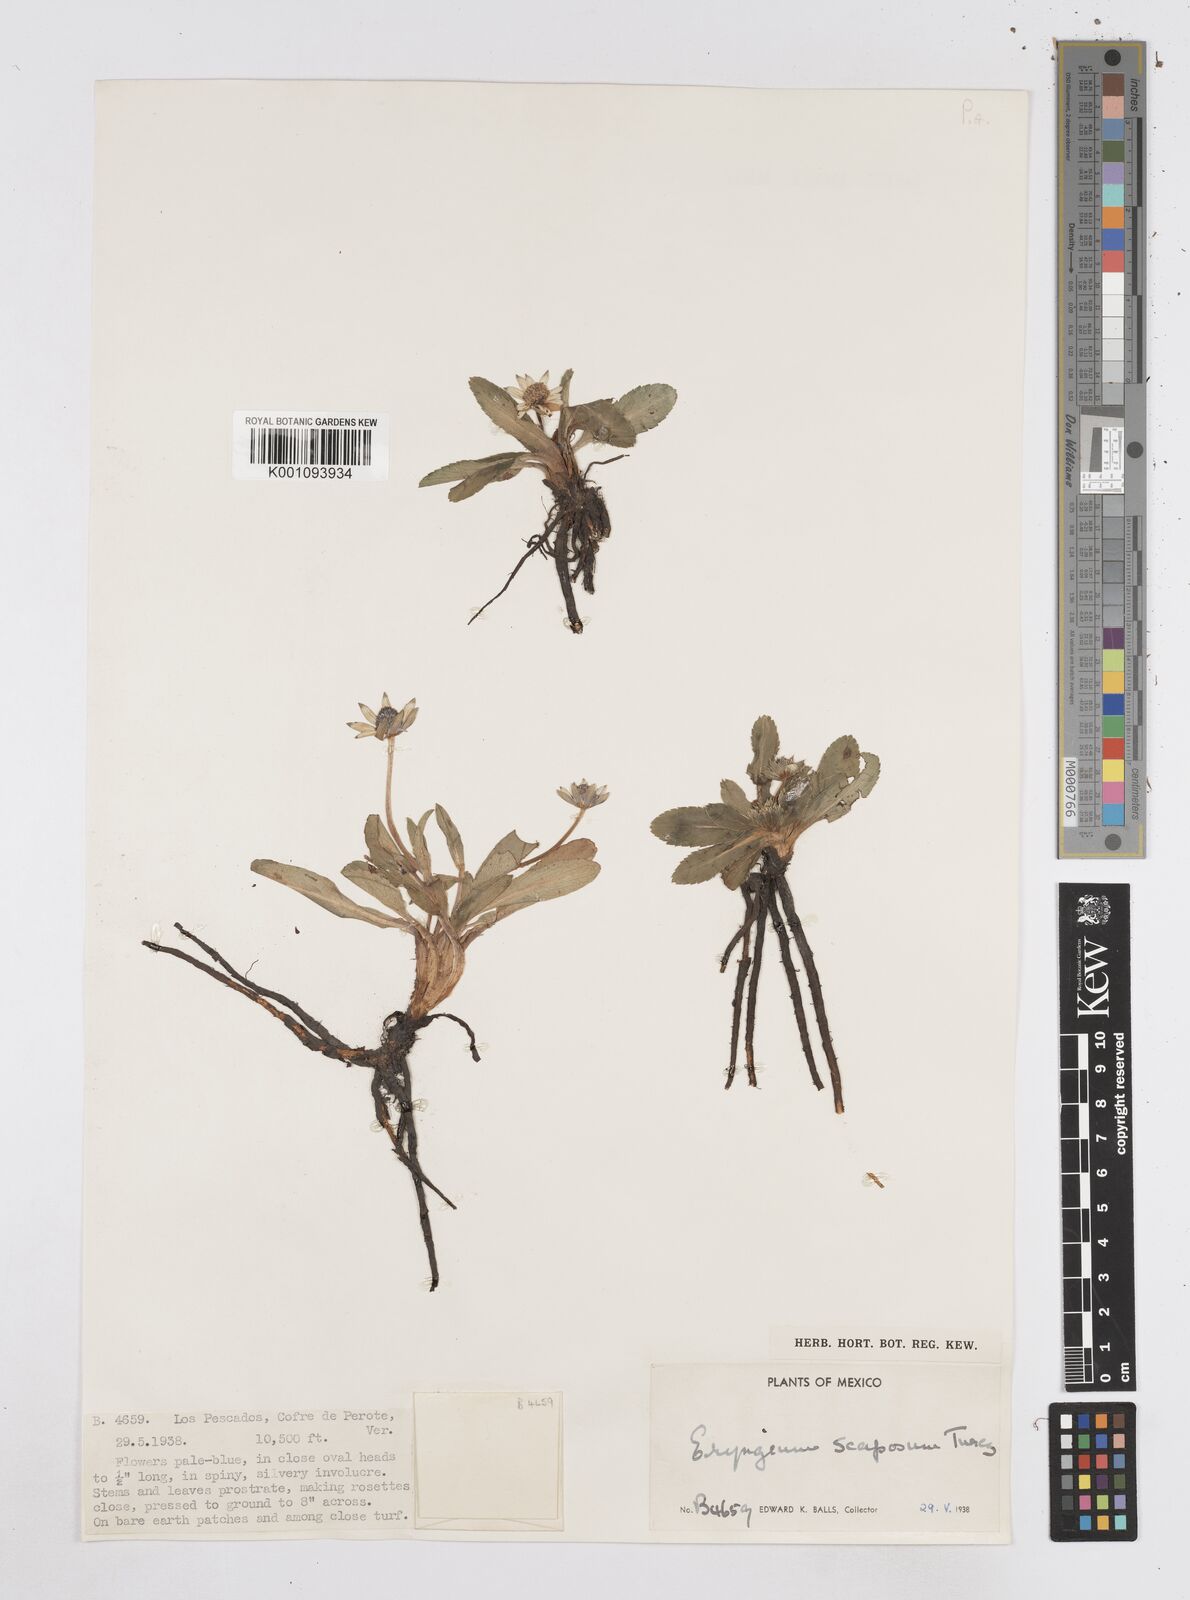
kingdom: Plantae
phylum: Tracheophyta
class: Magnoliopsida
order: Apiales
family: Apiaceae
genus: Eryngium
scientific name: Eryngium scaposum
